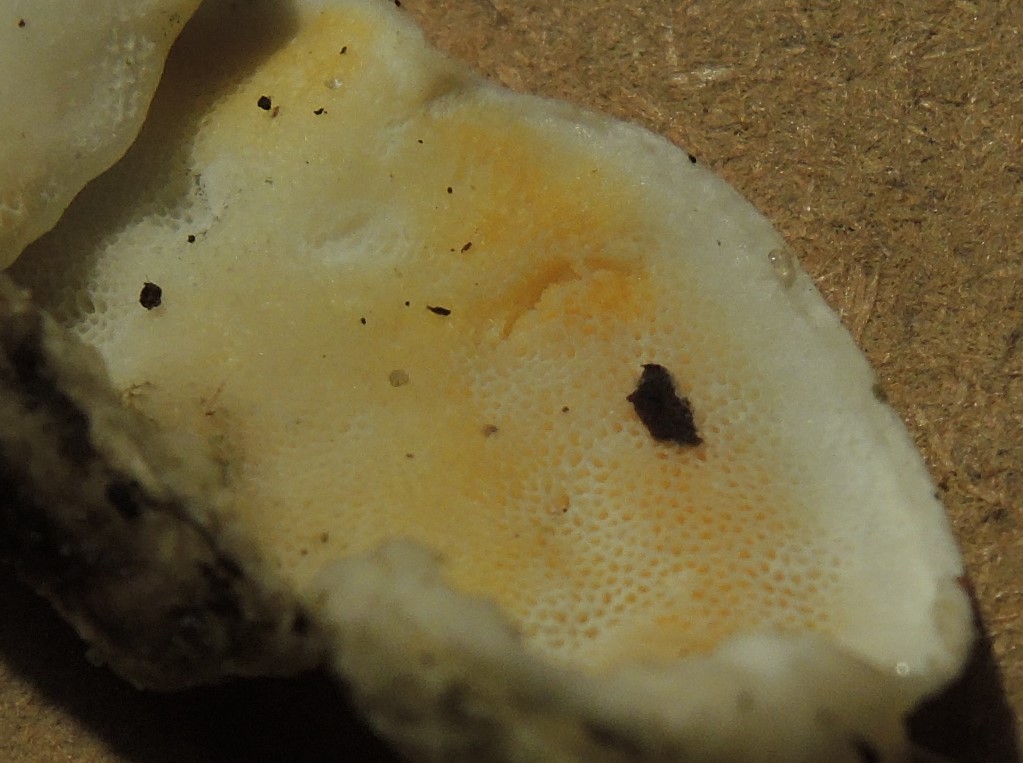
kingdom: Fungi
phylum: Basidiomycota
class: Agaricomycetes
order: Polyporales
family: Incrustoporiaceae
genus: Skeletocutis
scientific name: Skeletocutis amorpha
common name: orange krystalporesvamp
